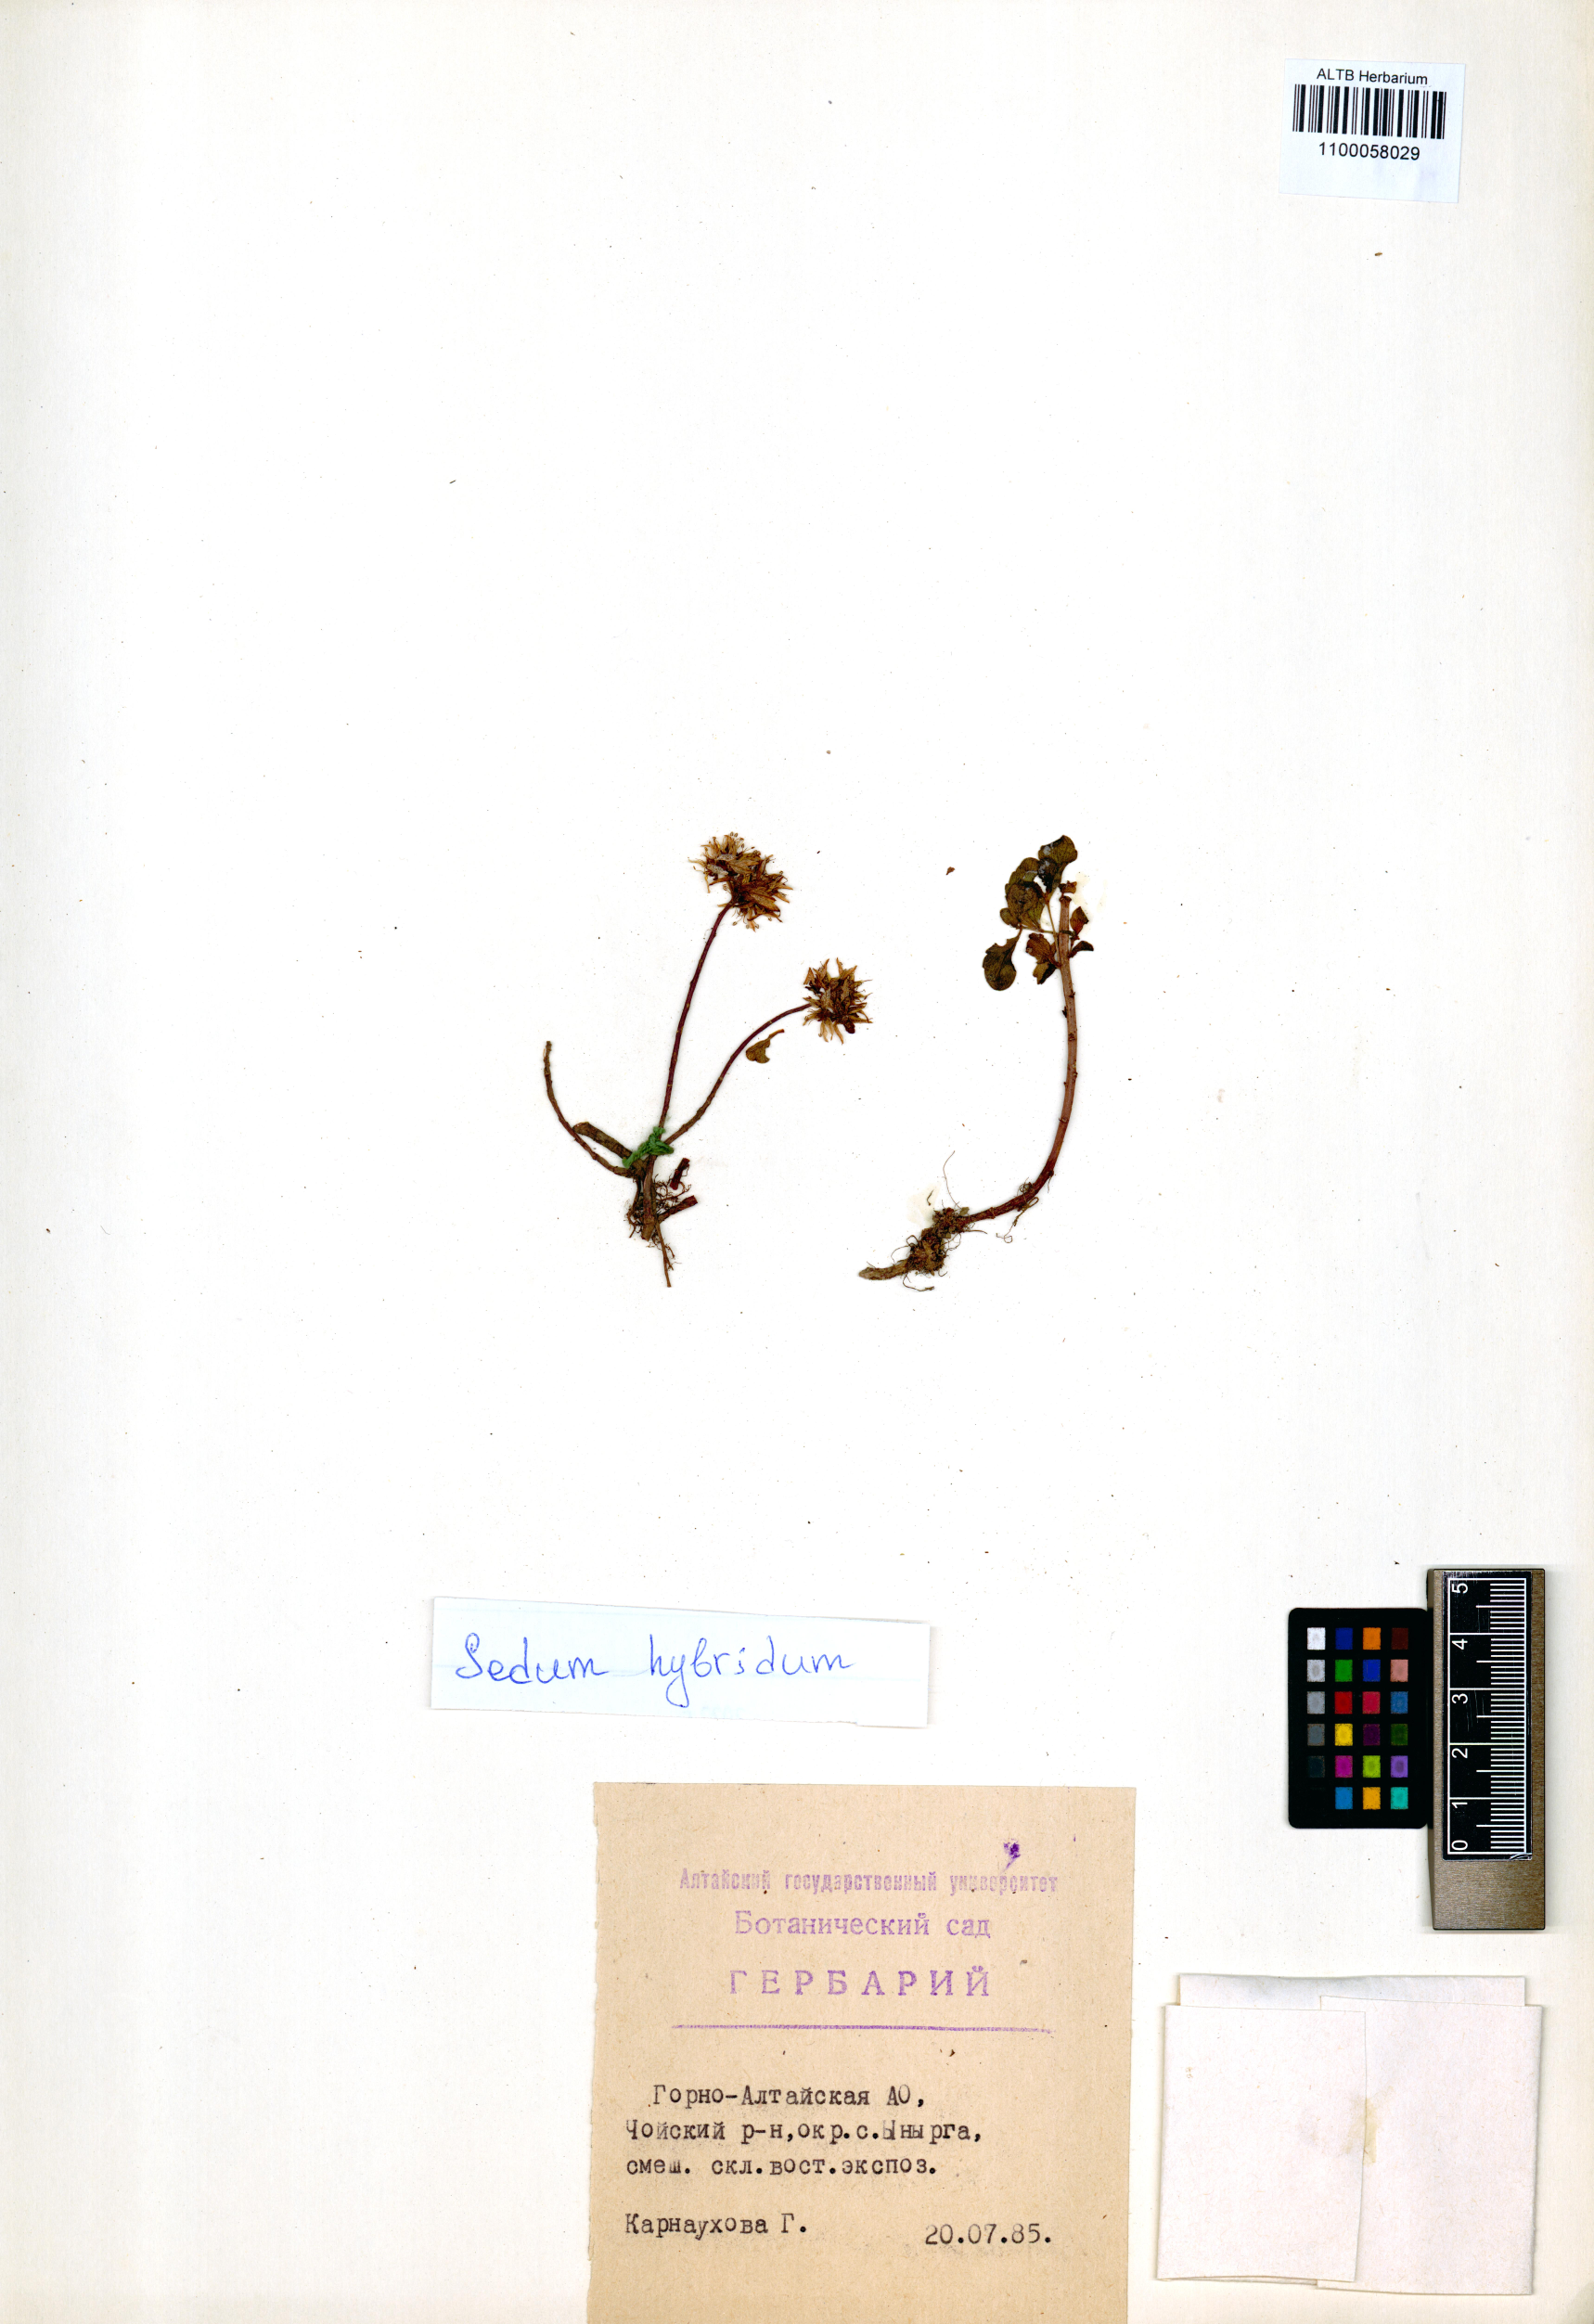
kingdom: Plantae
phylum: Tracheophyta
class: Magnoliopsida
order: Saxifragales
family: Crassulaceae
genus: Phedimus
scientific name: Phedimus hybridus
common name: Hybrid stonecrop
